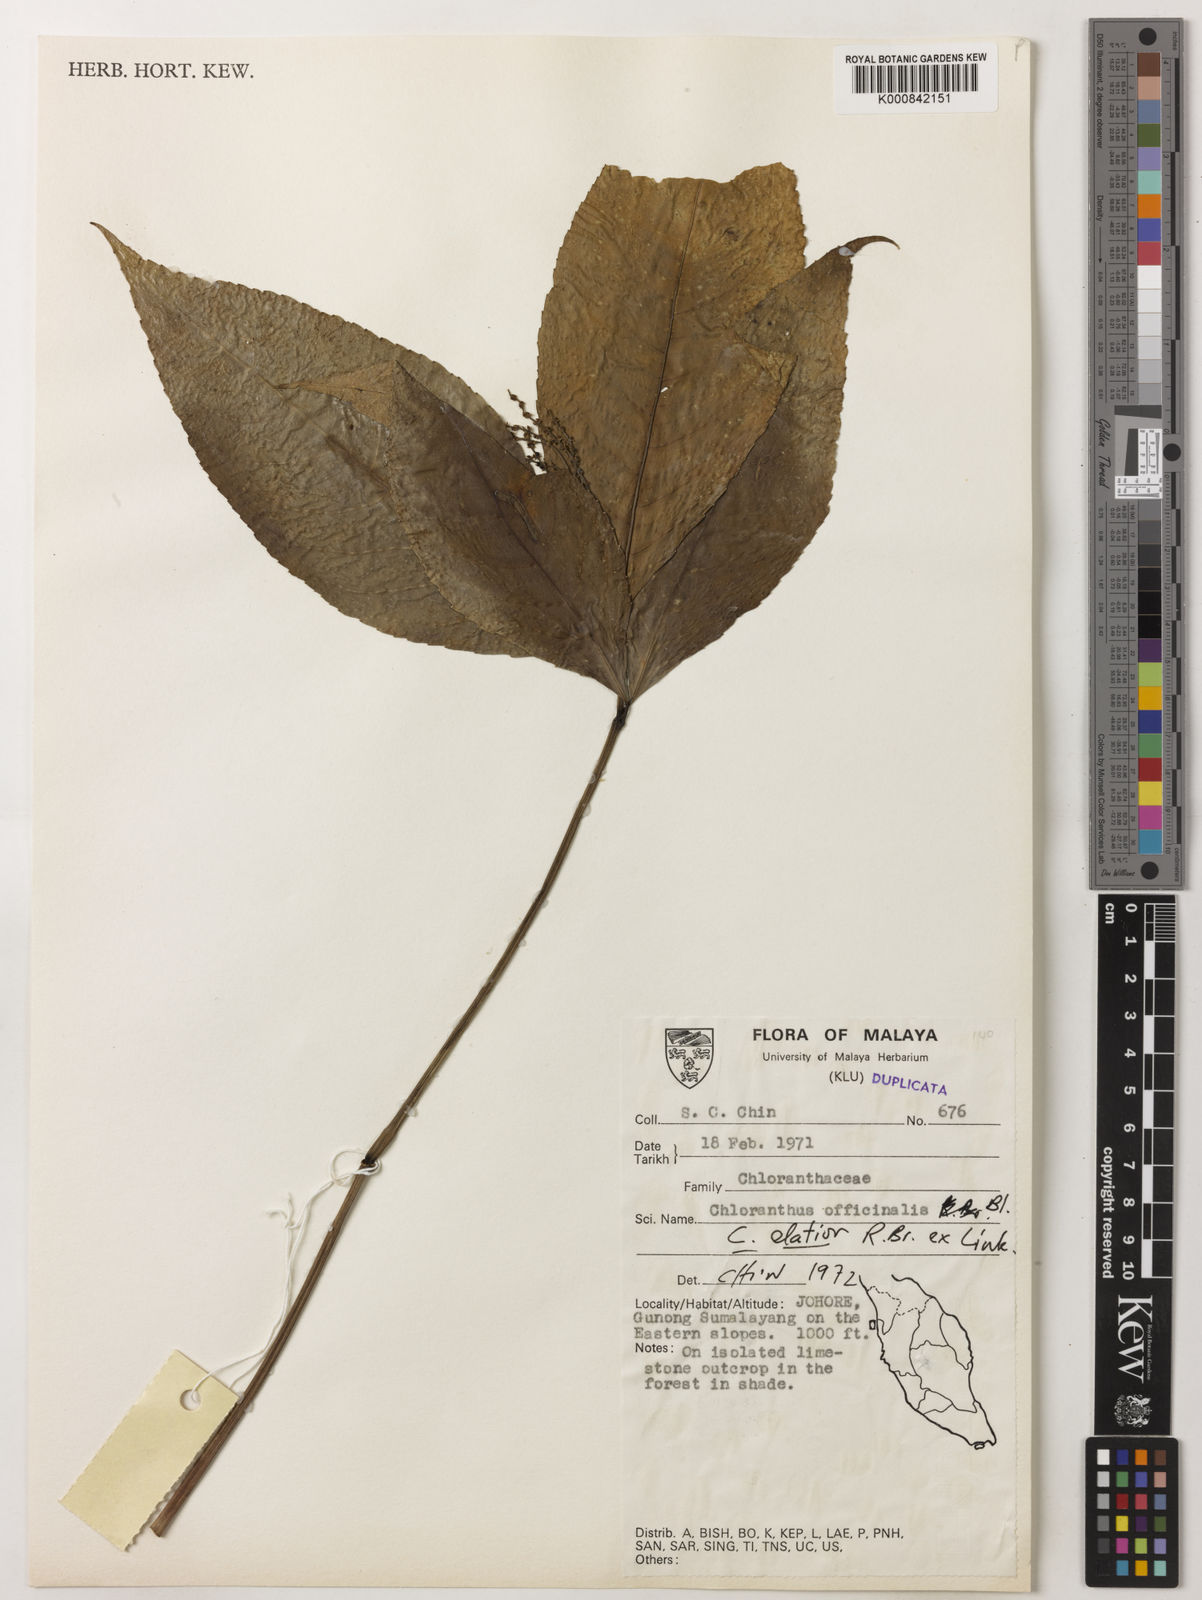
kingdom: Plantae
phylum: Tracheophyta
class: Magnoliopsida
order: Chloranthales
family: Chloranthaceae
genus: Chloranthus
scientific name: Chloranthus
